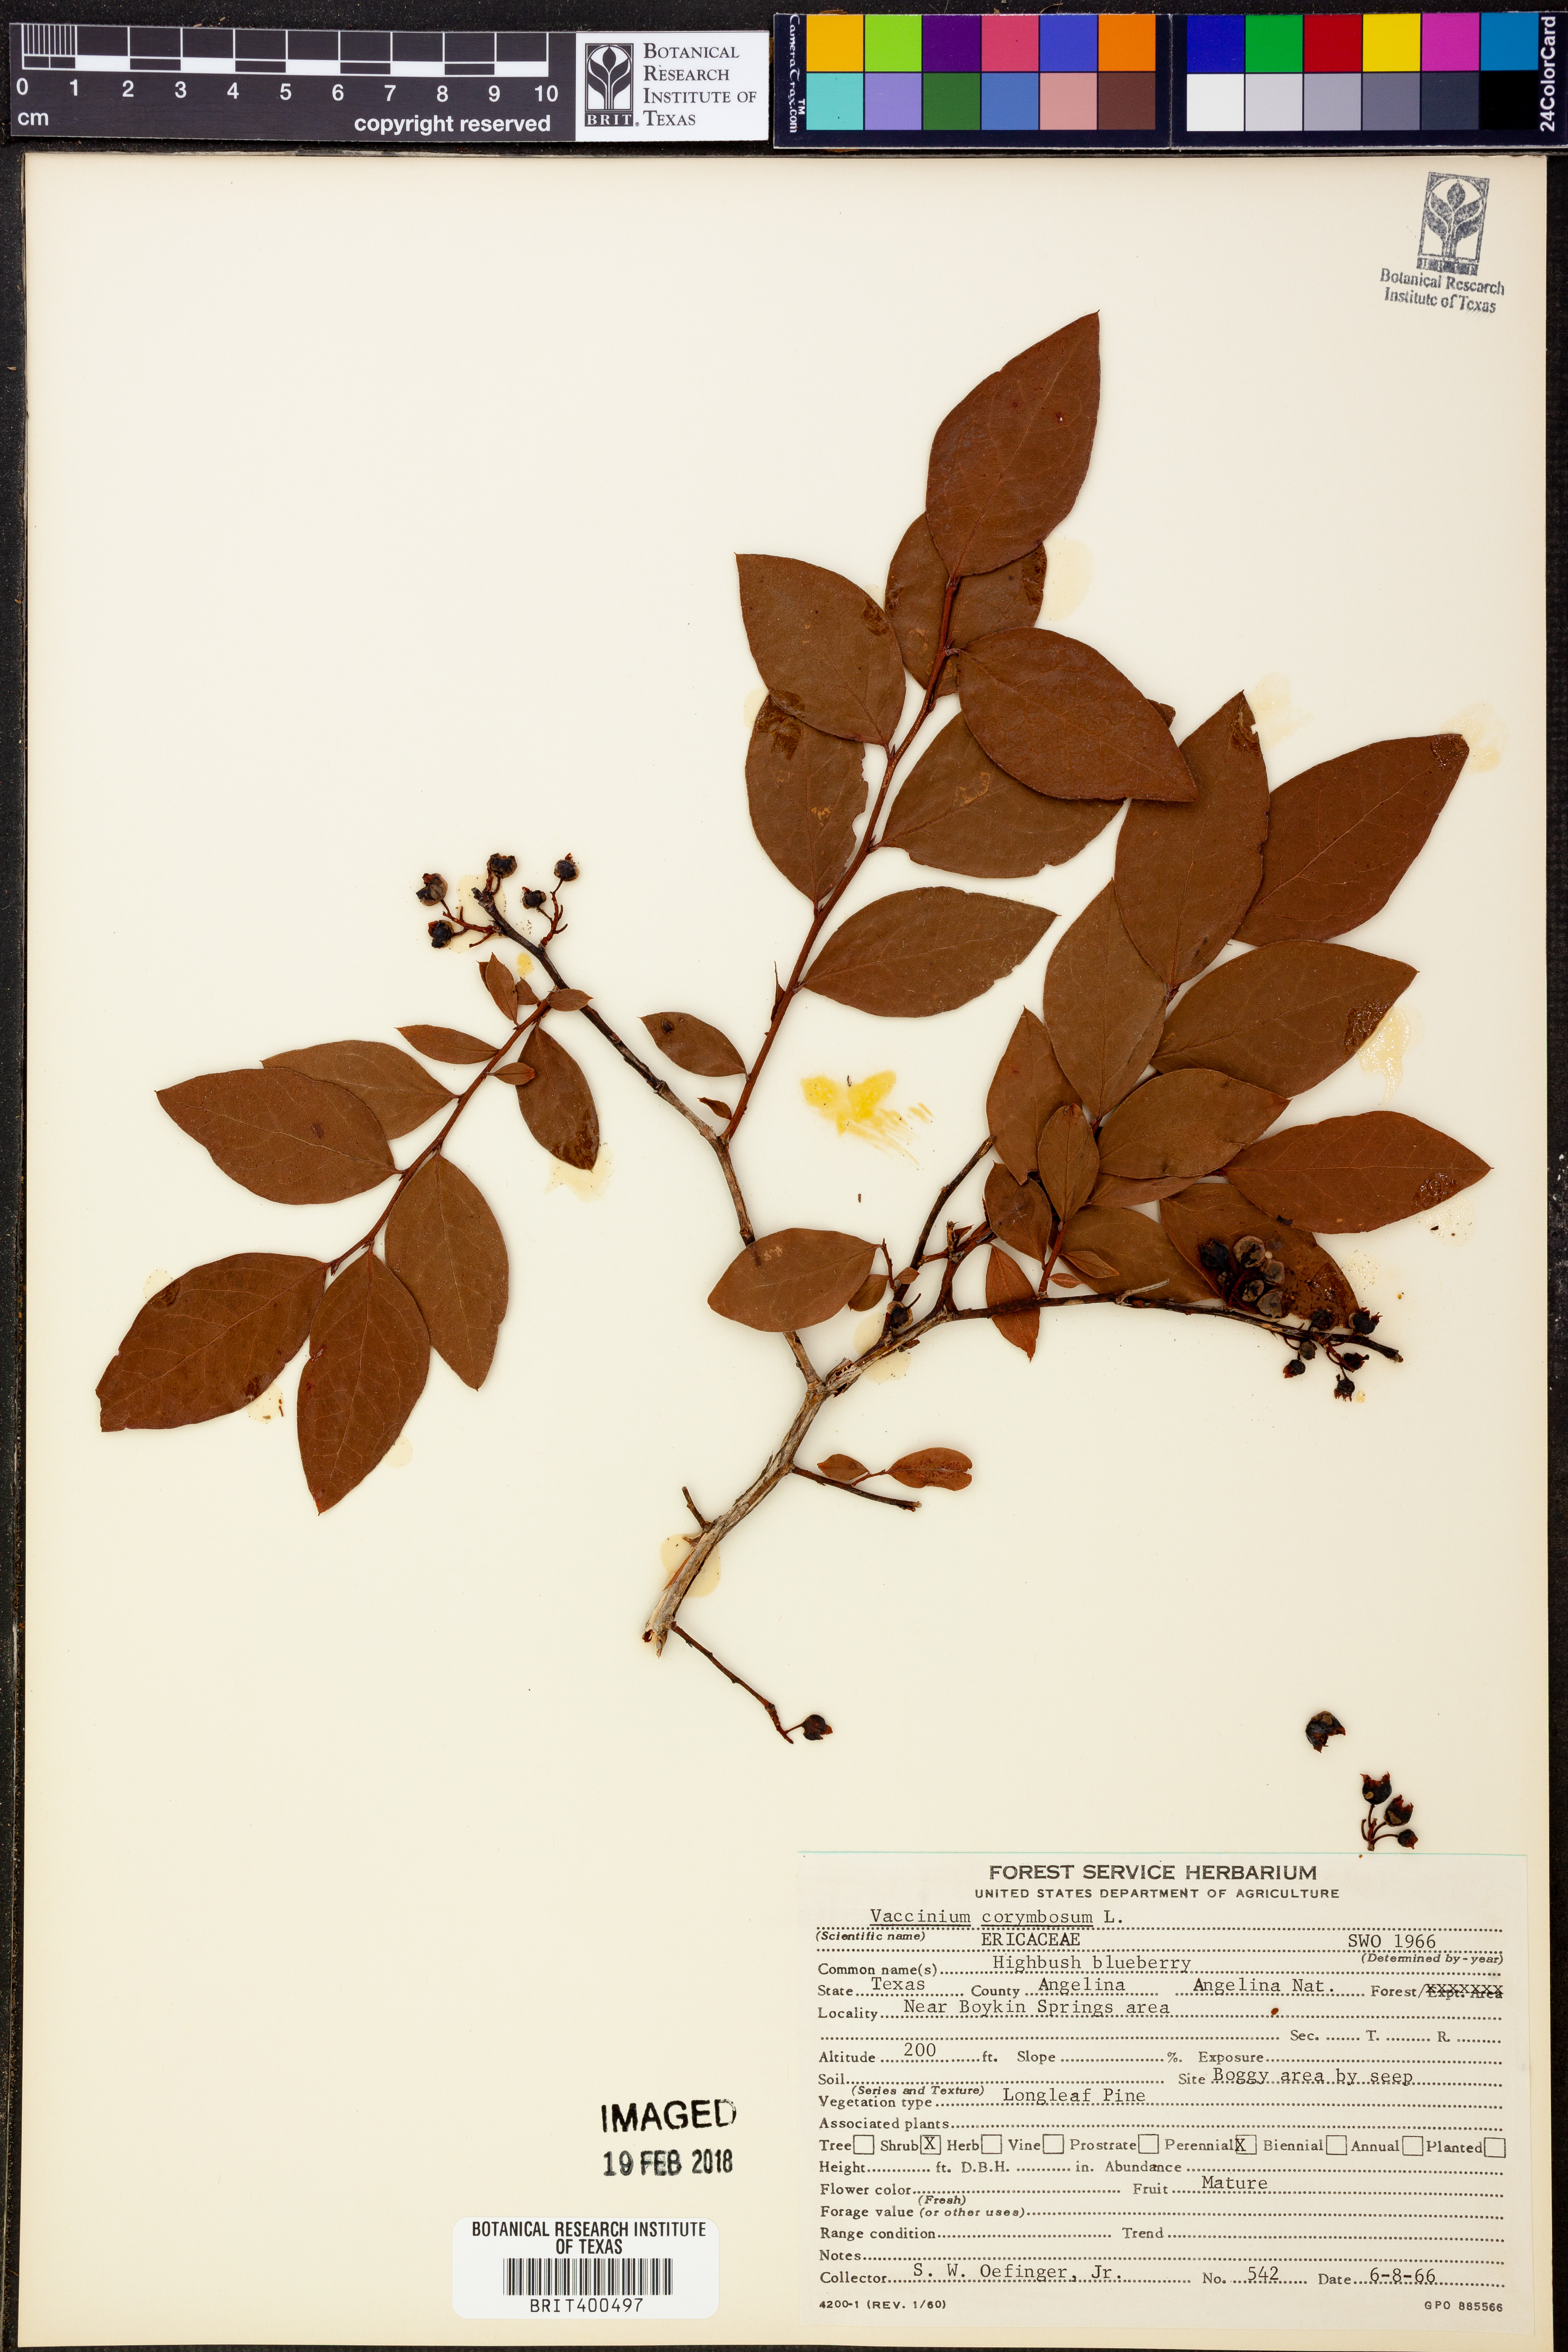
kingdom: Plantae
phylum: Tracheophyta
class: Magnoliopsida
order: Ericales
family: Ericaceae
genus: Vaccinium
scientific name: Vaccinium corymbosum
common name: Blueberry
